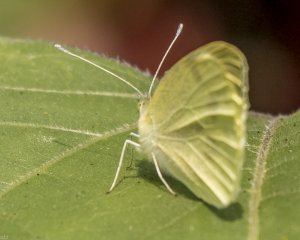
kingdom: Animalia
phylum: Arthropoda
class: Insecta
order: Lepidoptera
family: Pieridae
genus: Pieris
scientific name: Pieris rapae
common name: Cabbage White
